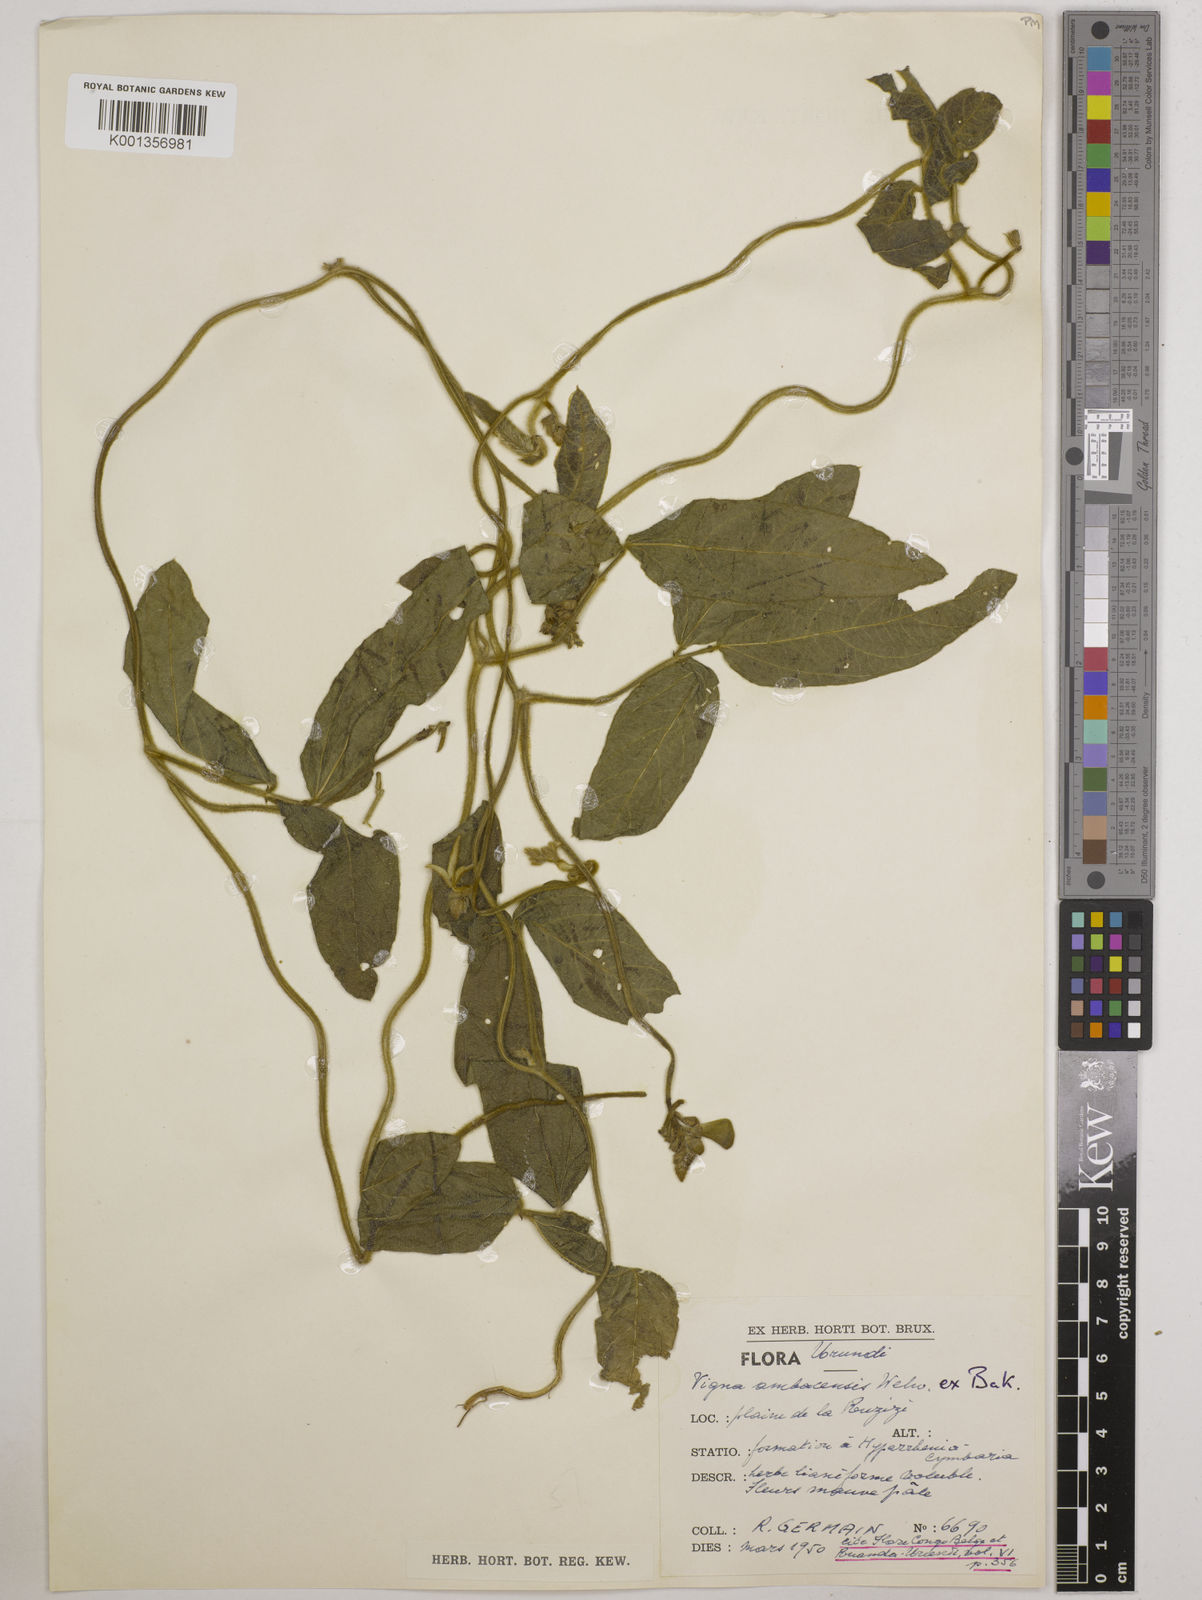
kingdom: Plantae
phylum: Tracheophyta
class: Magnoliopsida
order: Fabales
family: Fabaceae
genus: Vigna
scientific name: Vigna ambacensis
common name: Tsarkiyan zomo
